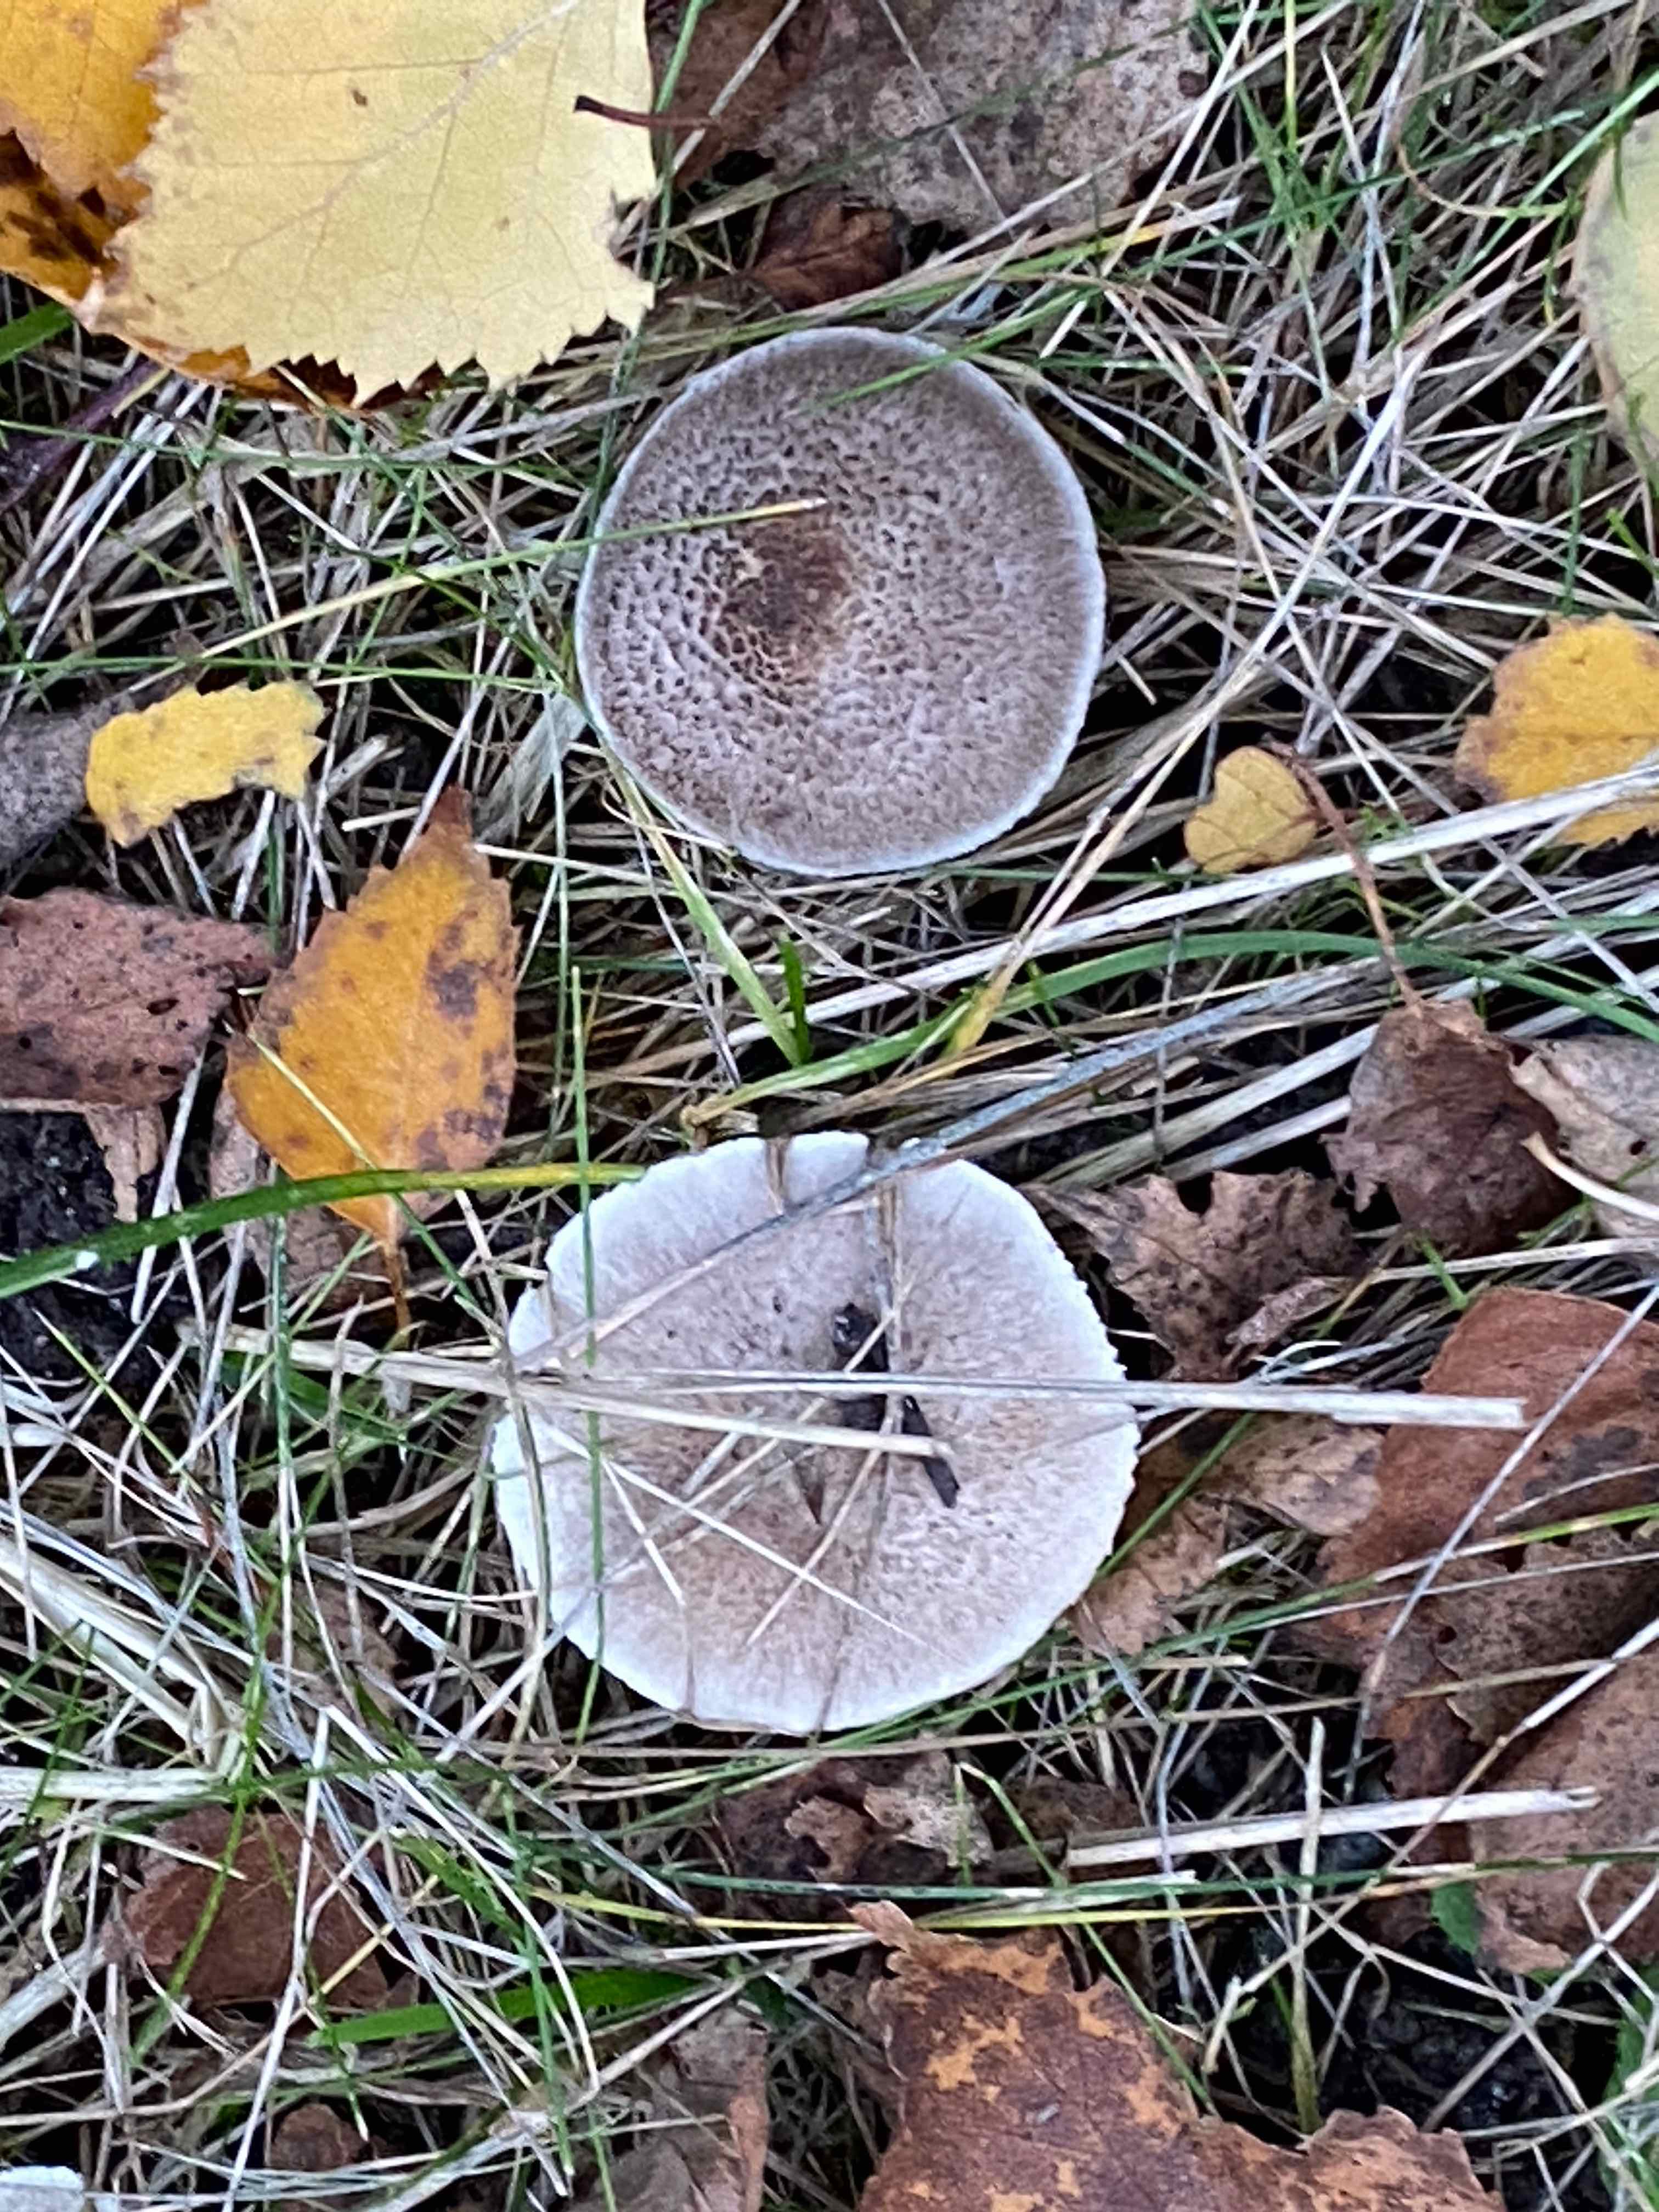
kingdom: Fungi
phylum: Basidiomycota
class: Agaricomycetes
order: Agaricales
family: Tricholomataceae
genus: Tricholoma
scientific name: Tricholoma argyraceum
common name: slør-ridderhat
